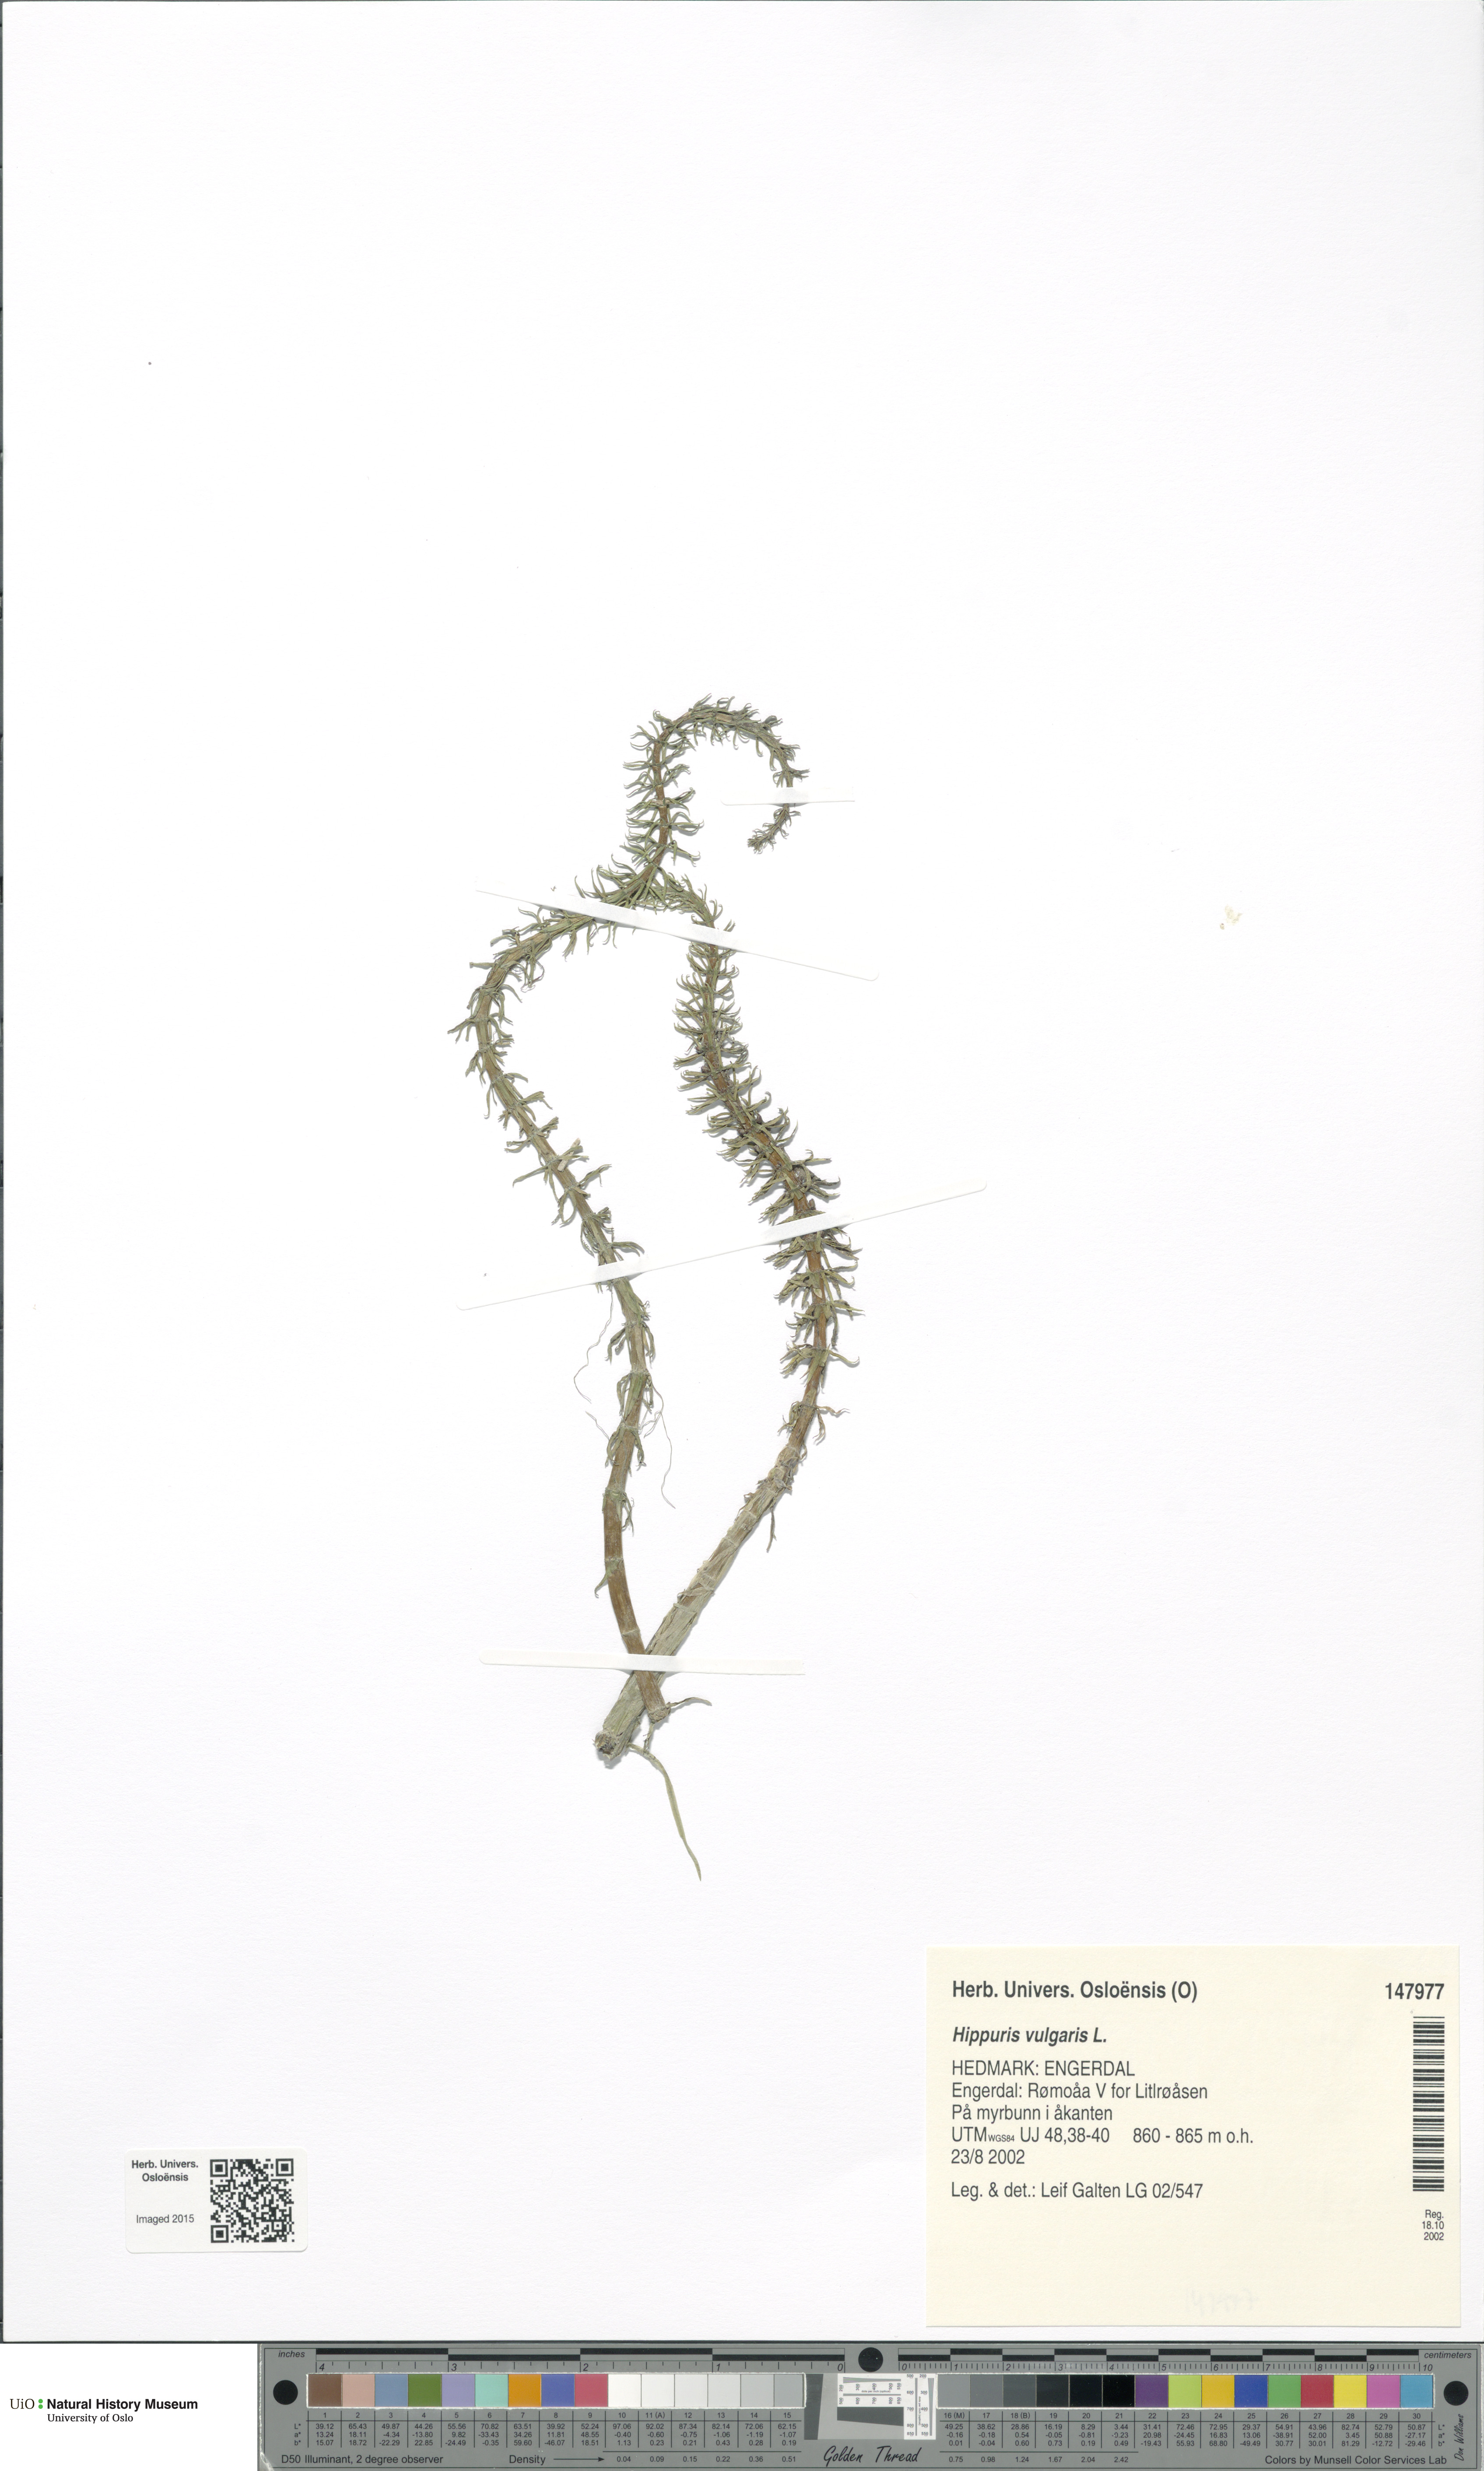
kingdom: Plantae
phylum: Tracheophyta
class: Magnoliopsida
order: Lamiales
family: Plantaginaceae
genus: Hippuris
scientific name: Hippuris vulgaris
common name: Mare's-tail
